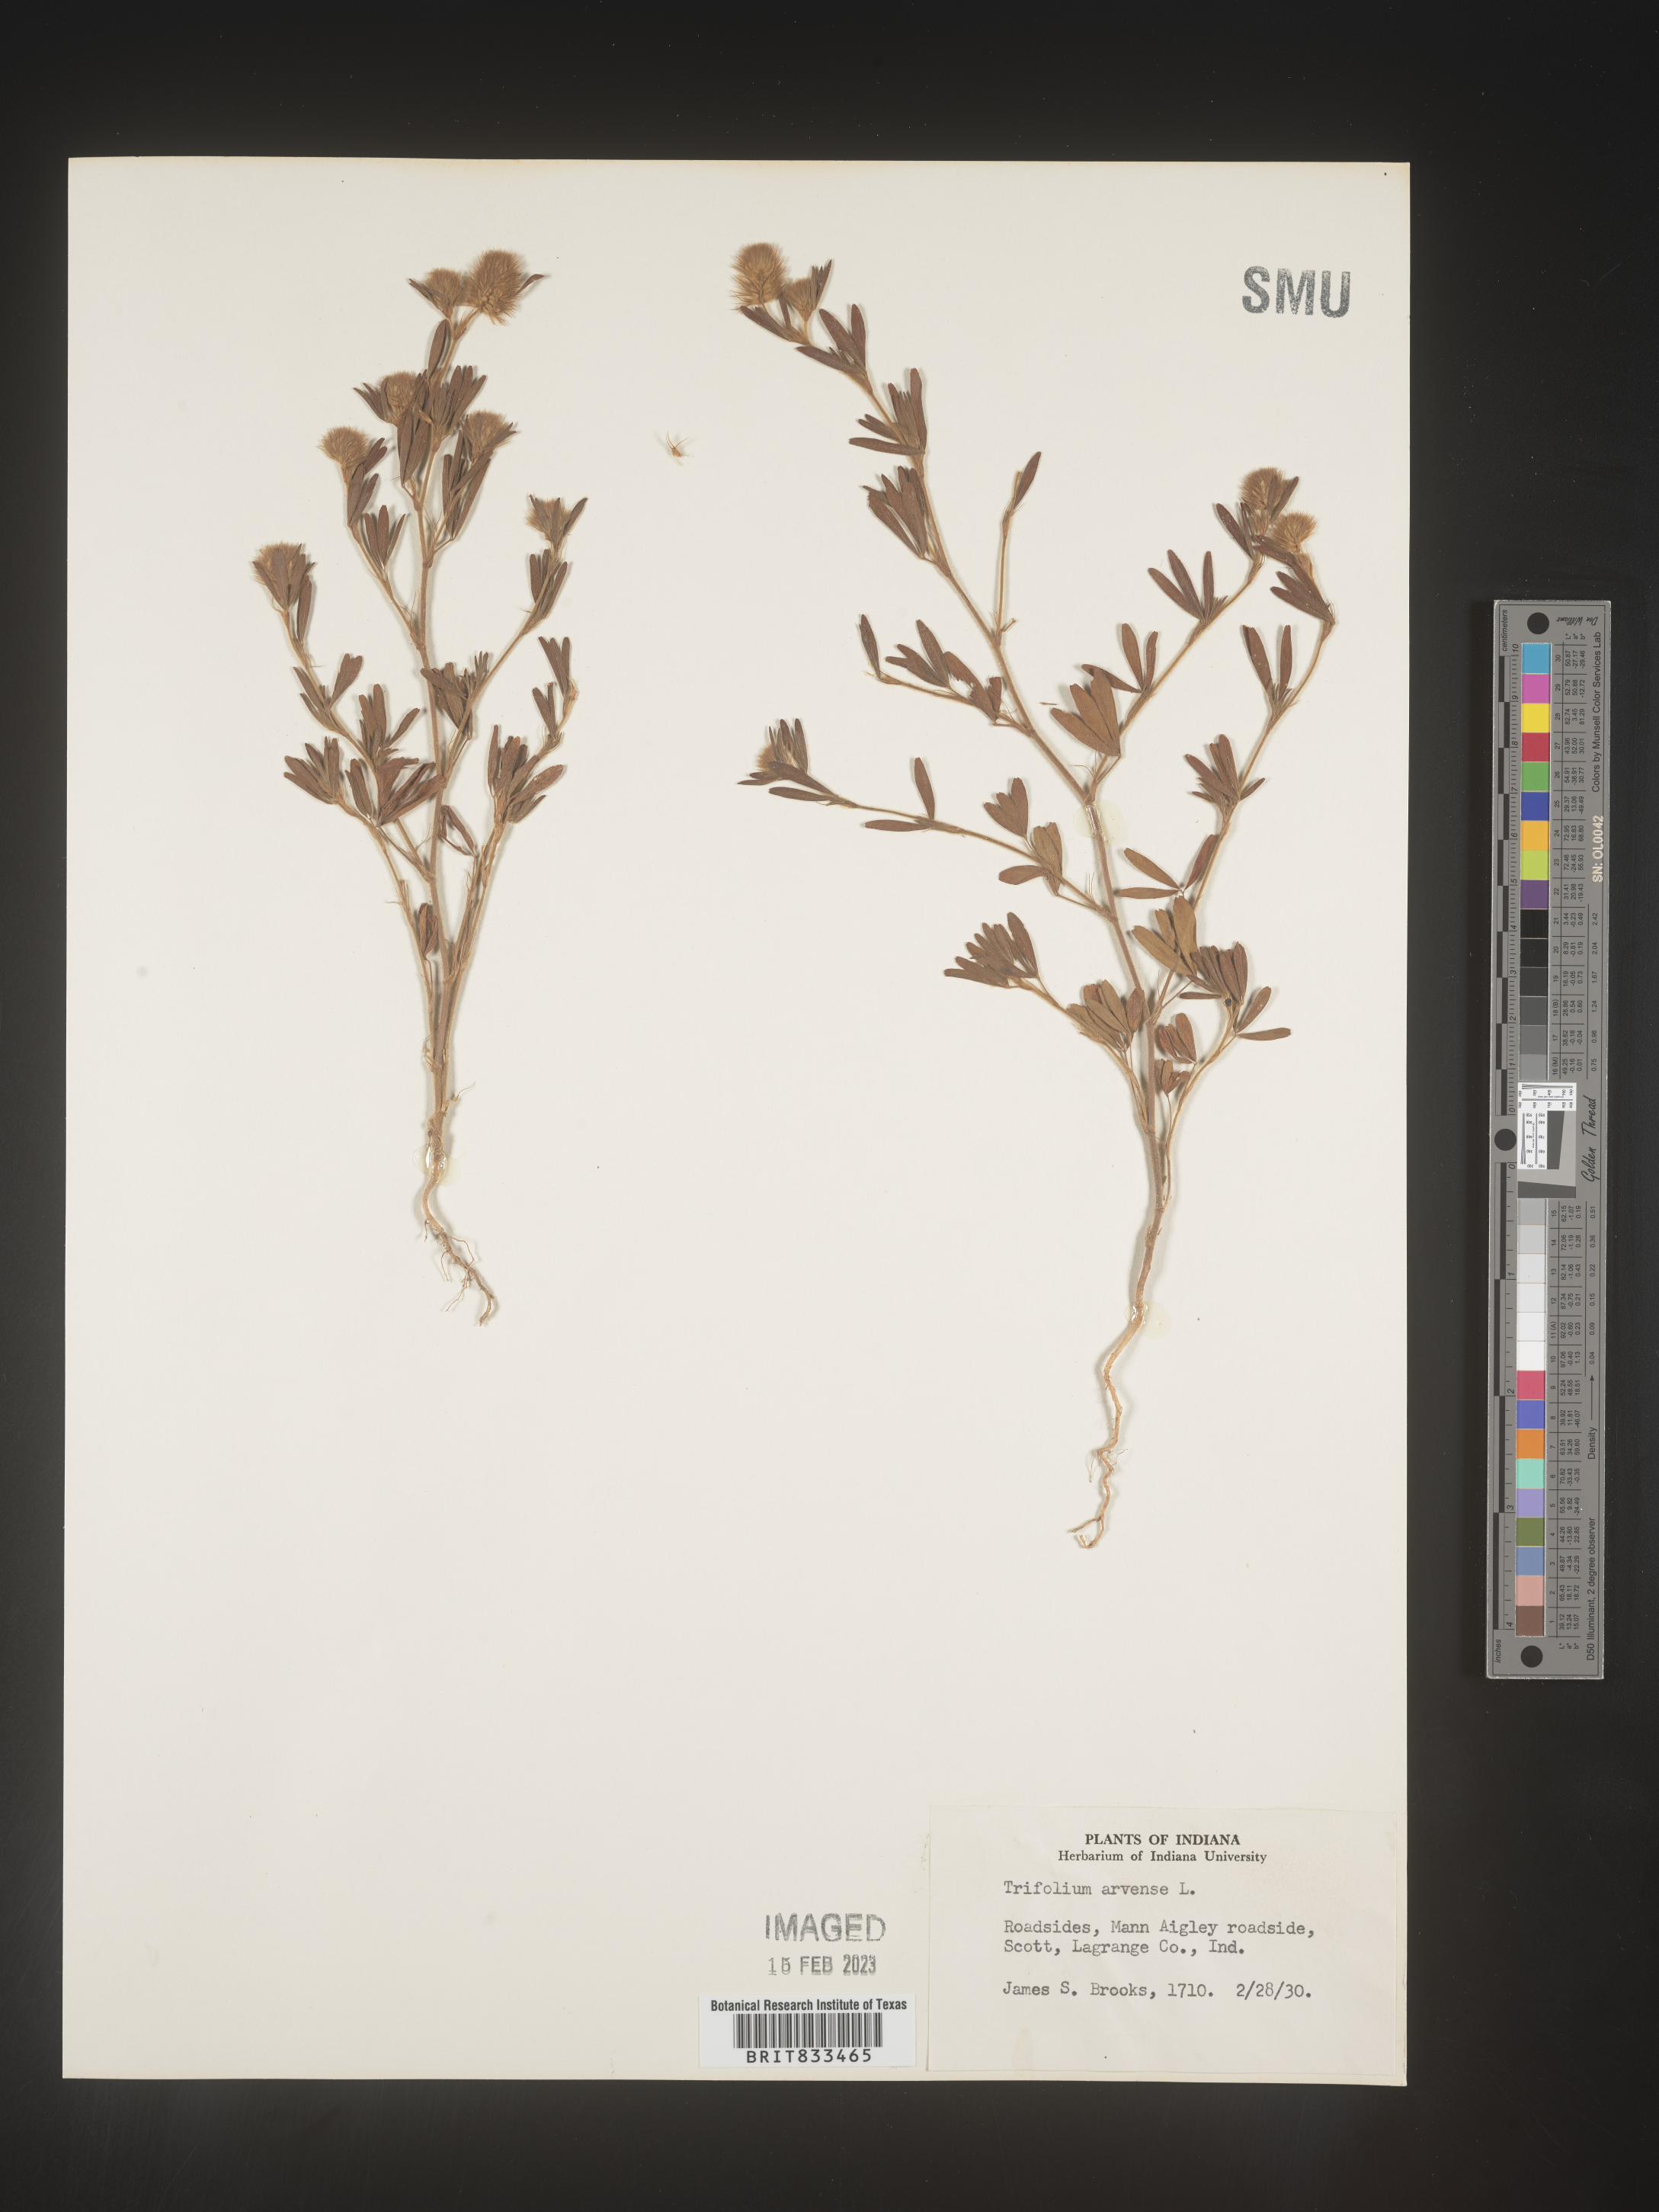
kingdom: Plantae
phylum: Tracheophyta
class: Magnoliopsida
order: Fabales
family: Fabaceae
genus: Trifolium
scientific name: Trifolium arvense
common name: Hare's-foot clover
